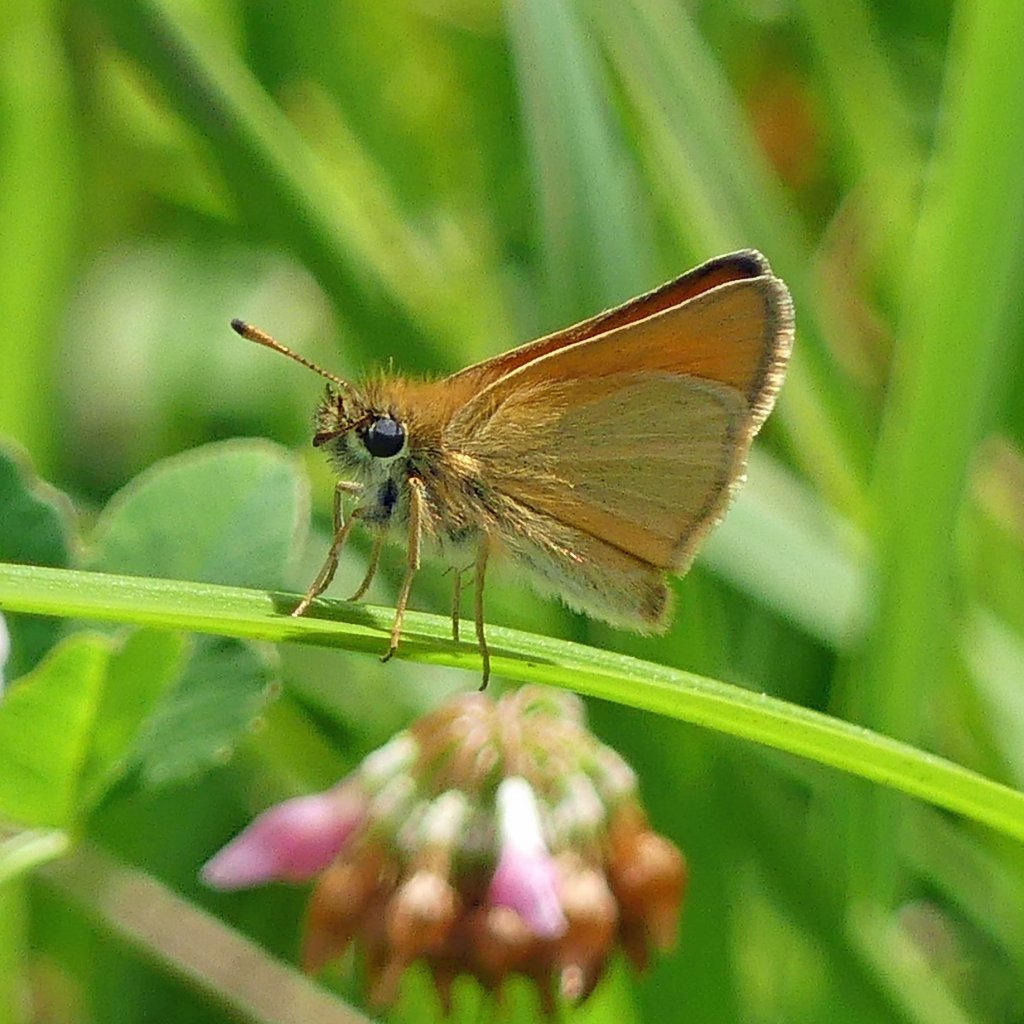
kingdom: Animalia
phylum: Arthropoda
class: Insecta
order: Lepidoptera
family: Hesperiidae
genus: Thymelicus
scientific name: Thymelicus lineola
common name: European Skipper
